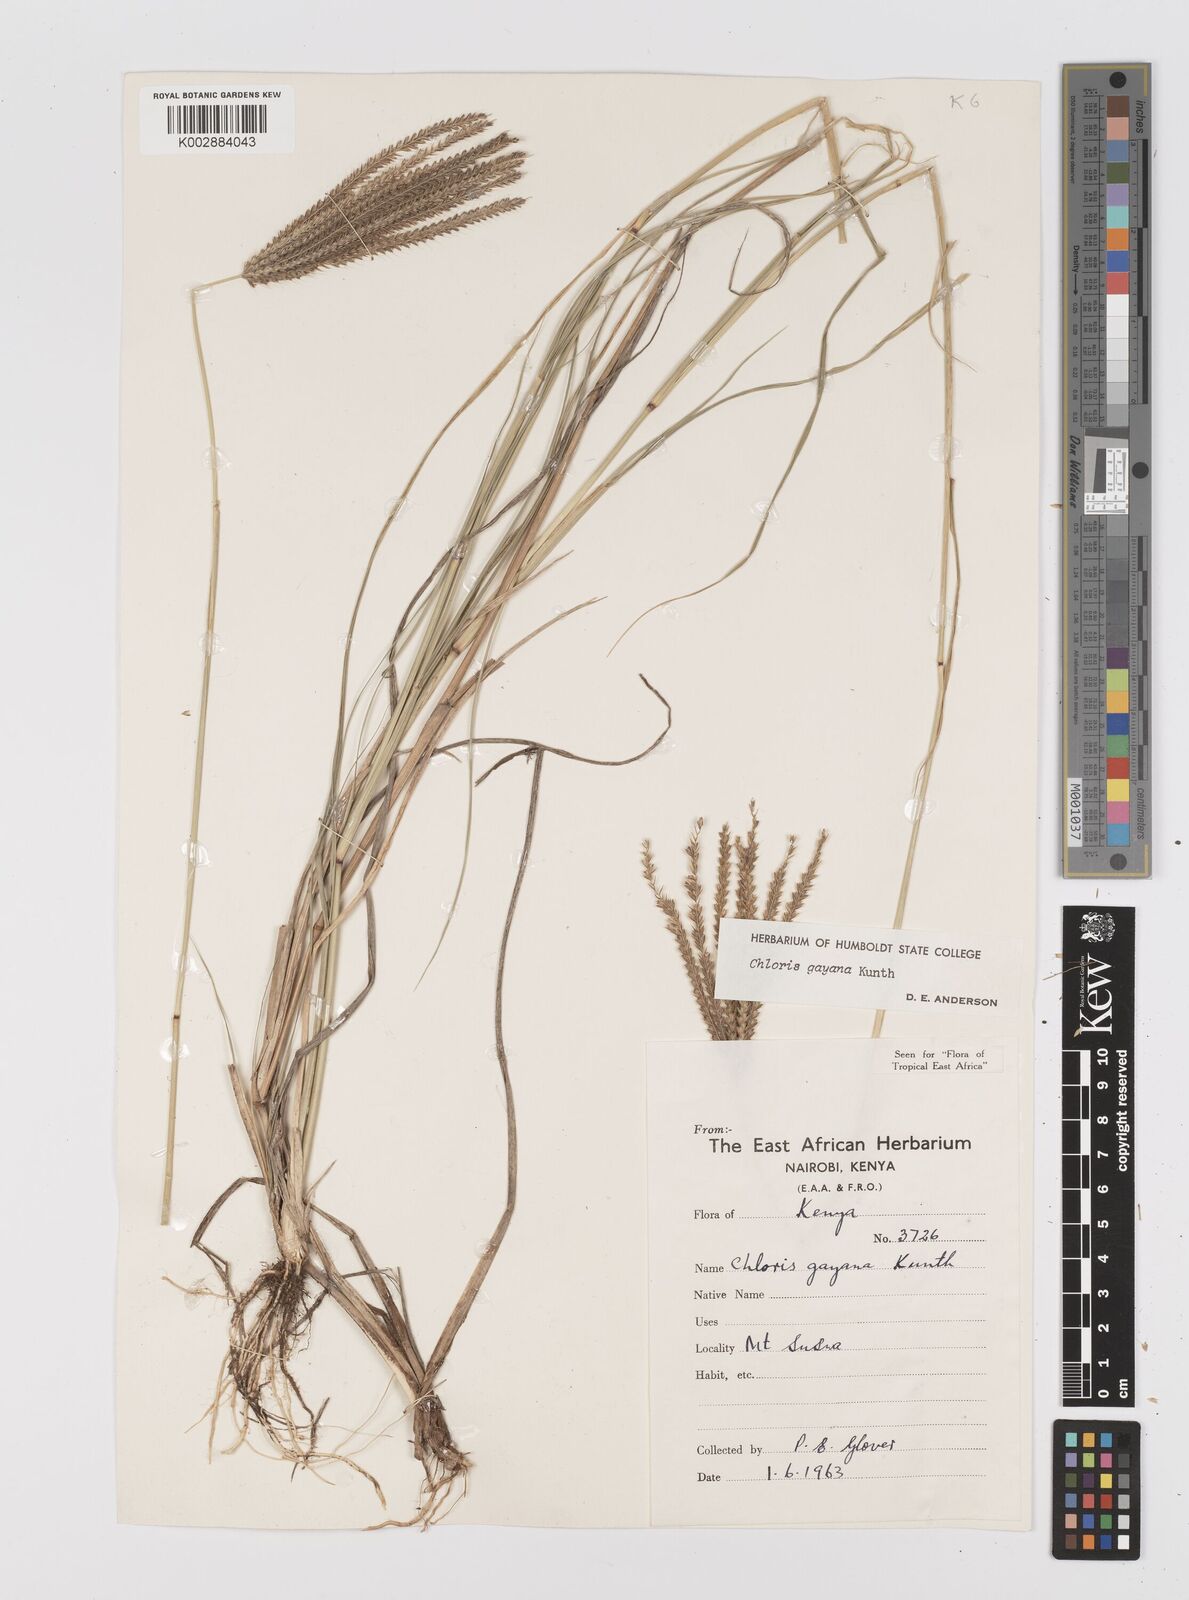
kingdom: Plantae
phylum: Tracheophyta
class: Liliopsida
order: Poales
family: Poaceae
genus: Chloris
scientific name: Chloris gayana
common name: Rhodes grass
